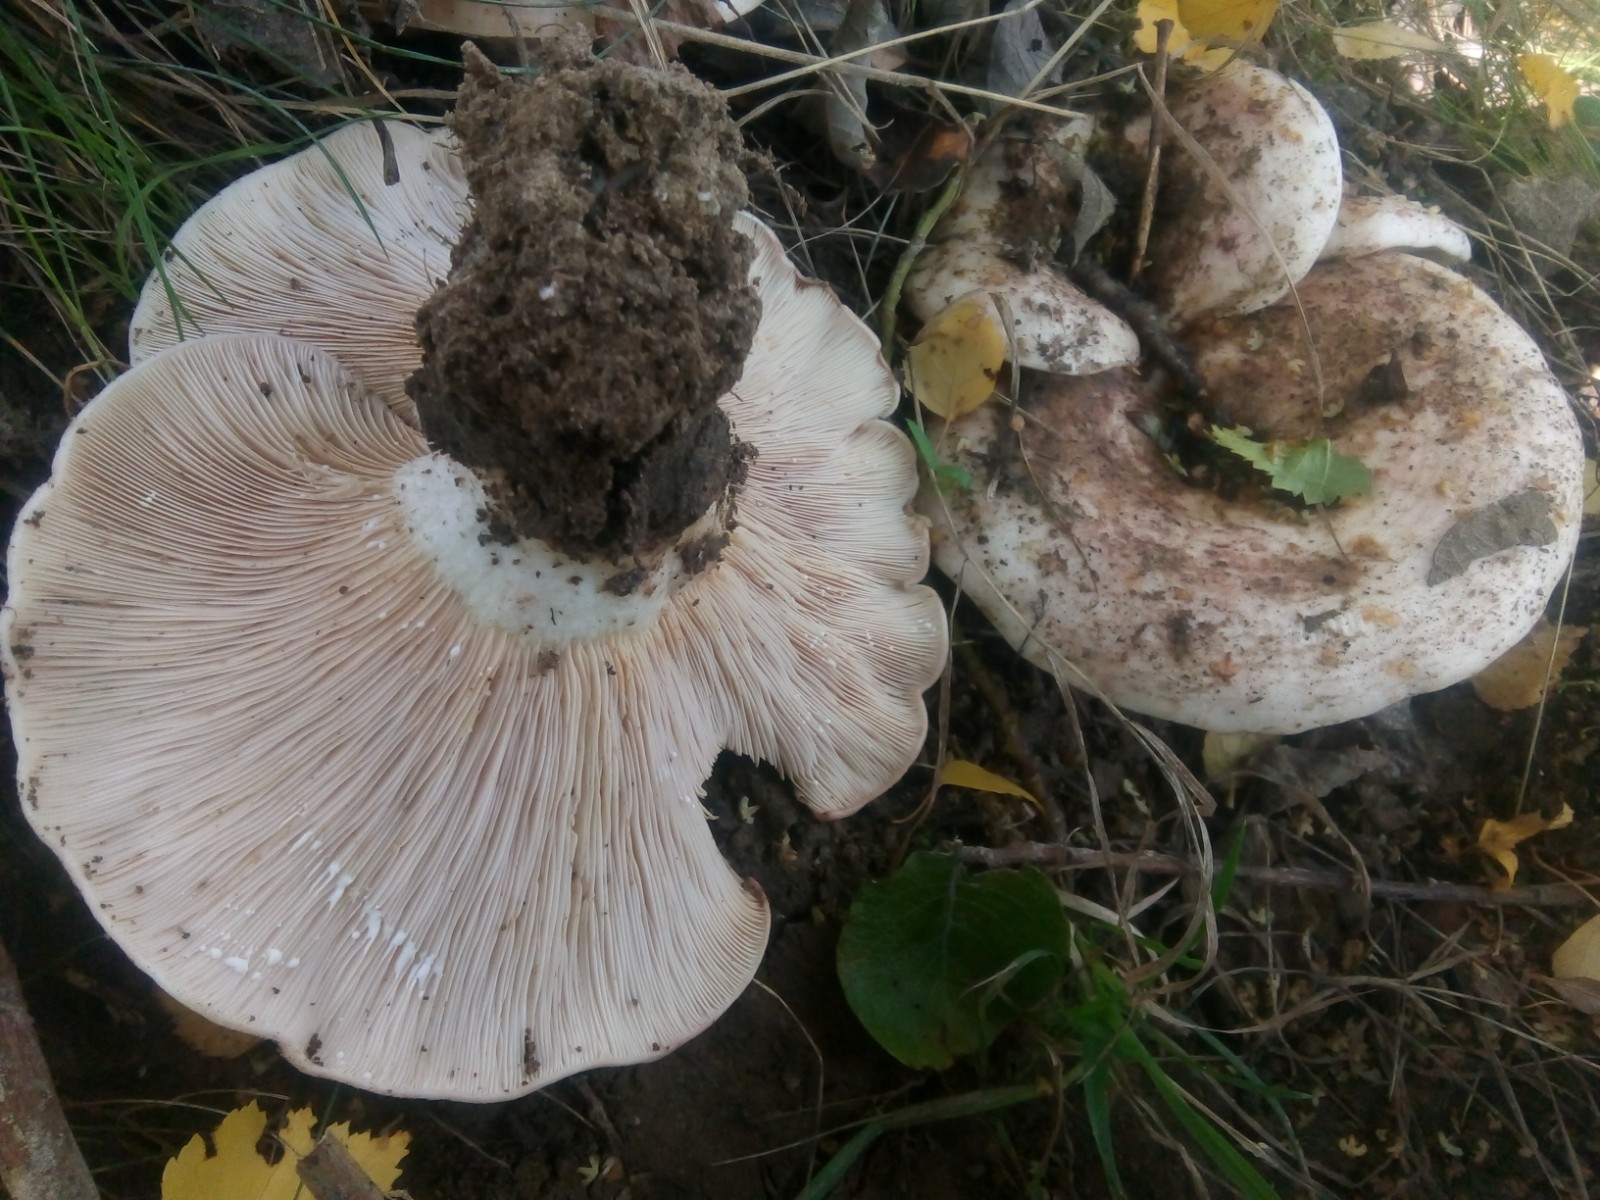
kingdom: Fungi
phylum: Basidiomycota
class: Agaricomycetes
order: Russulales
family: Russulaceae
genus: Lactarius
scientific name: Lactarius controversus
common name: rosabladet mælkehat
